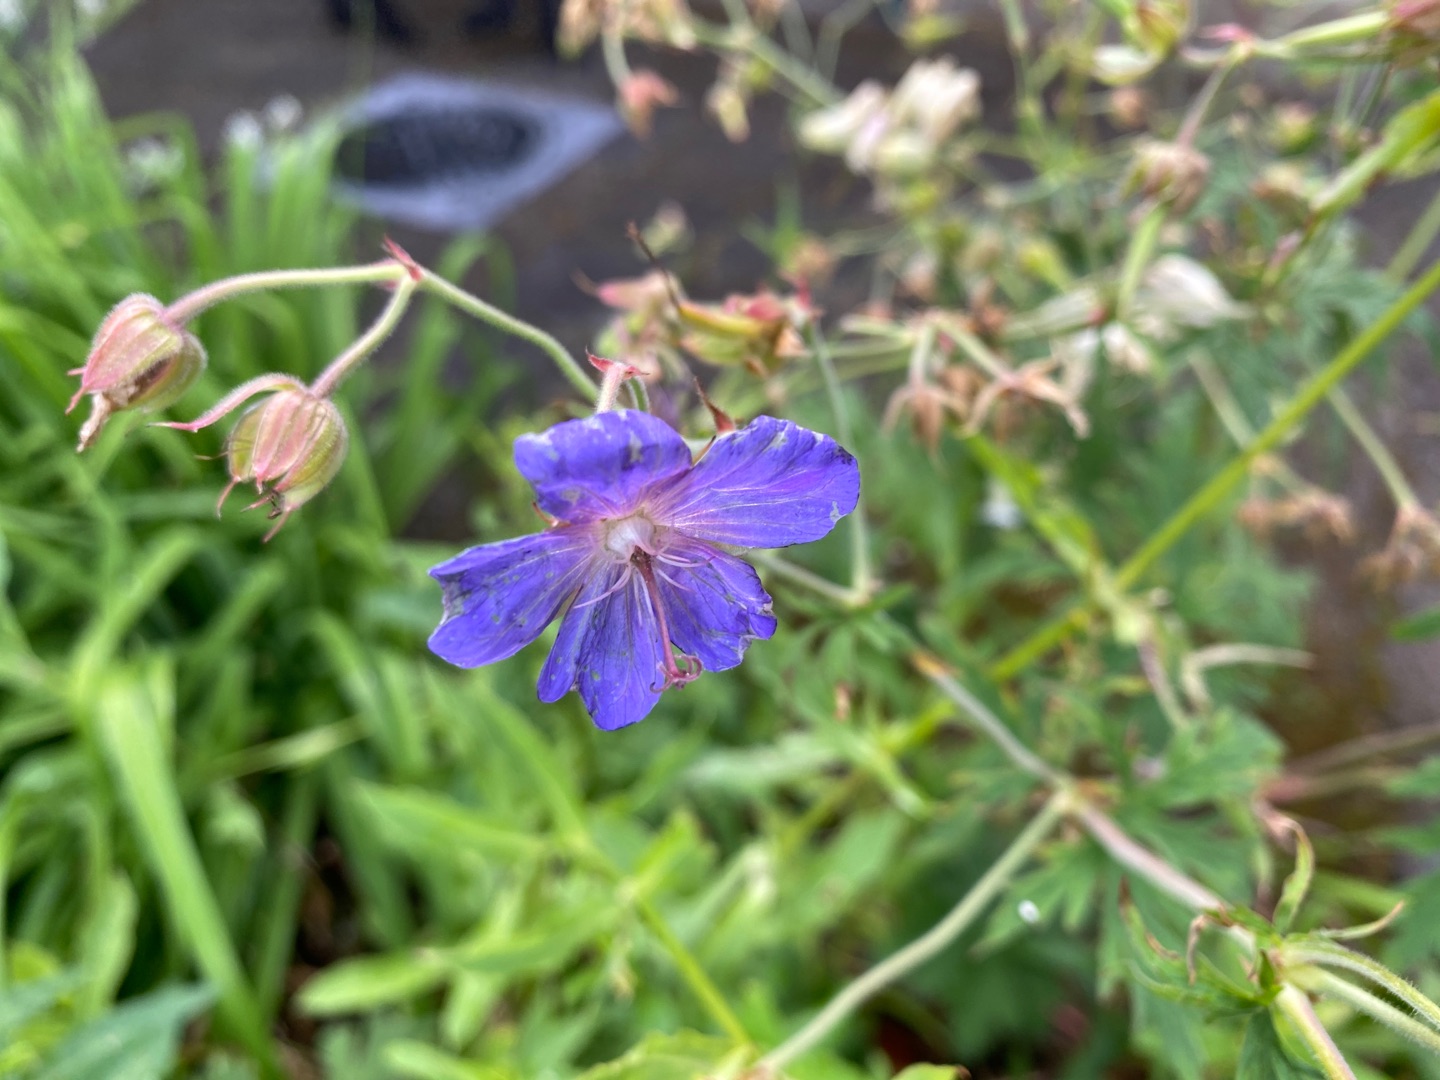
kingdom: Plantae
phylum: Tracheophyta
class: Magnoliopsida
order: Geraniales
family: Geraniaceae
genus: Geranium
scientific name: Geranium pratense
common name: Eng-storkenæb
